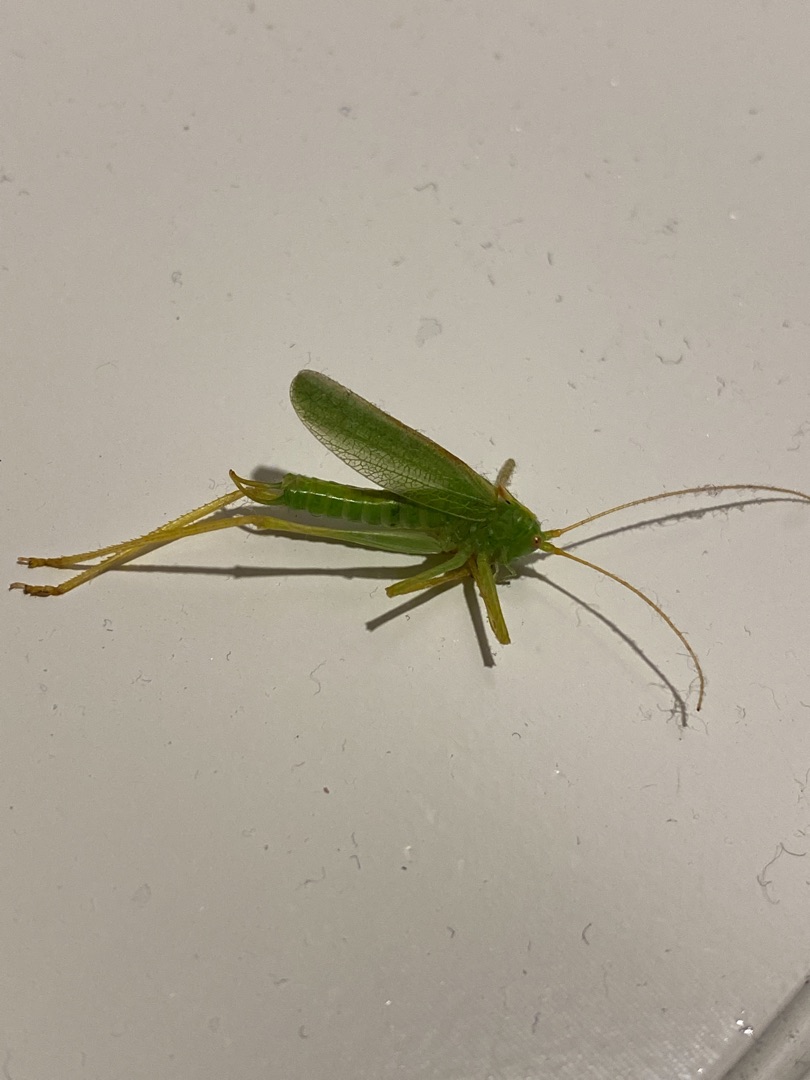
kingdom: Animalia
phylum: Arthropoda
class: Insecta
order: Orthoptera
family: Tettigoniidae
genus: Meconema
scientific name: Meconema thalassinum
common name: Egegræshoppe
